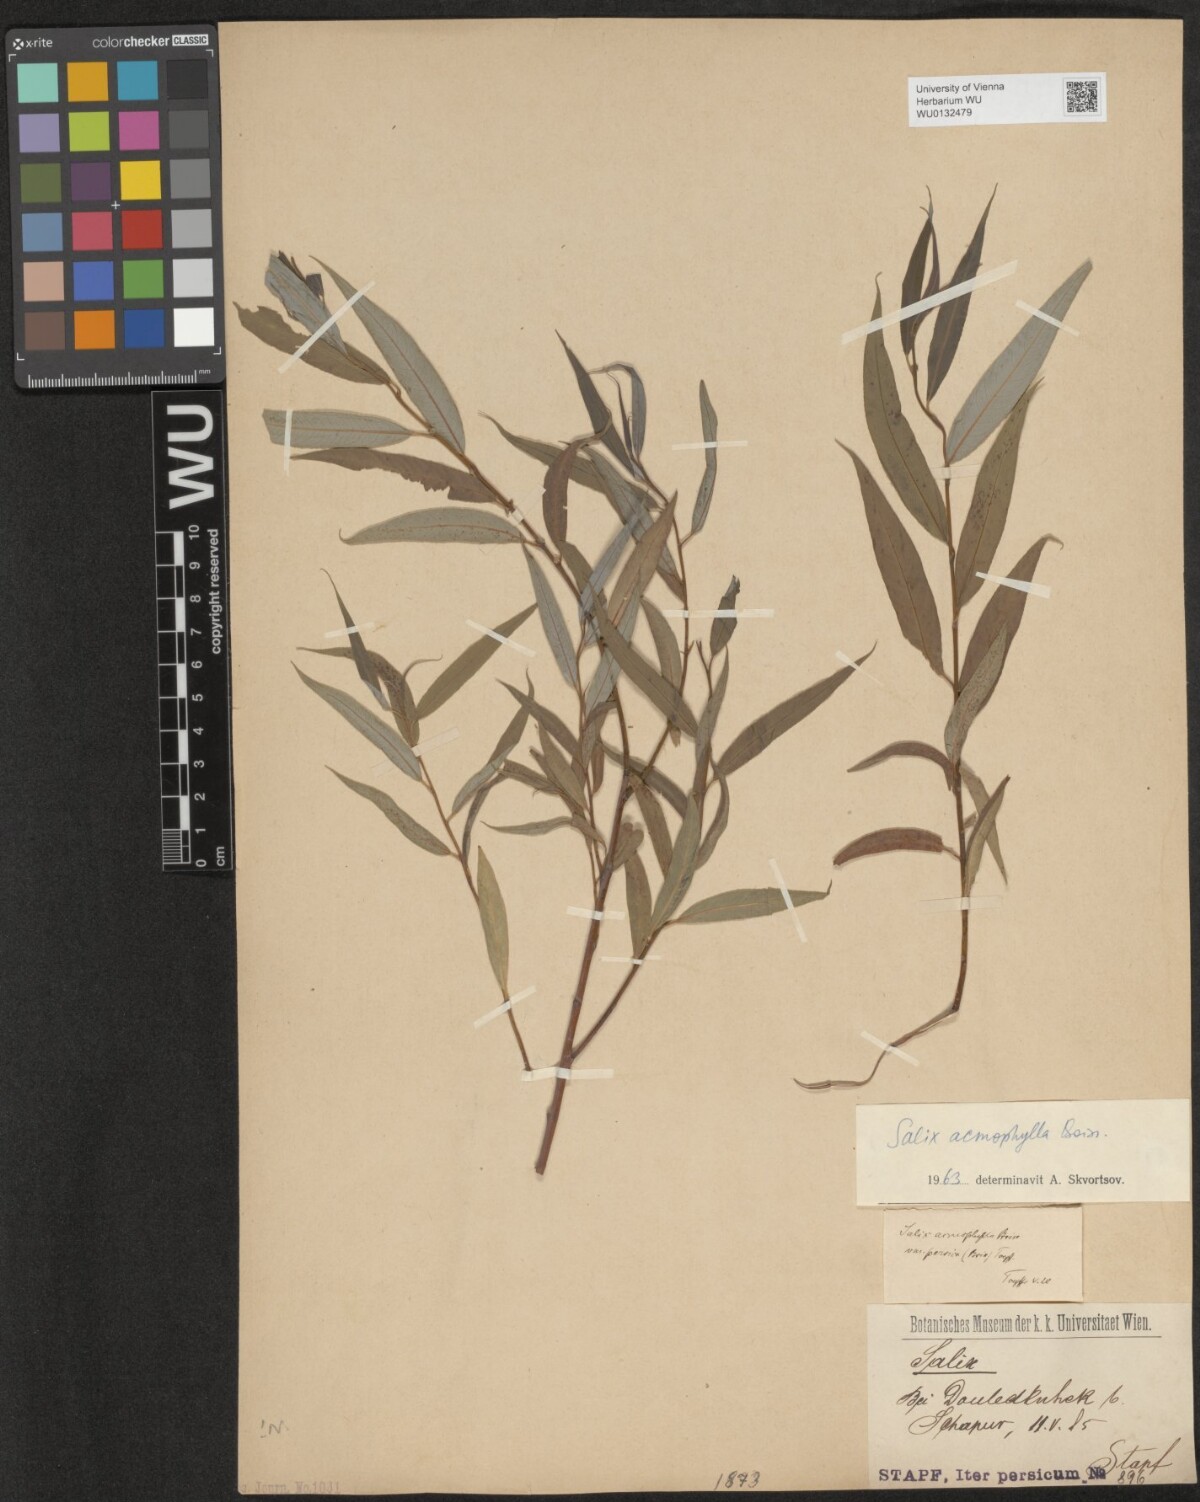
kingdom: Plantae
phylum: Tracheophyta
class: Magnoliopsida
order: Malpighiales
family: Salicaceae
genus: Salix
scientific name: Salix acmophylla
